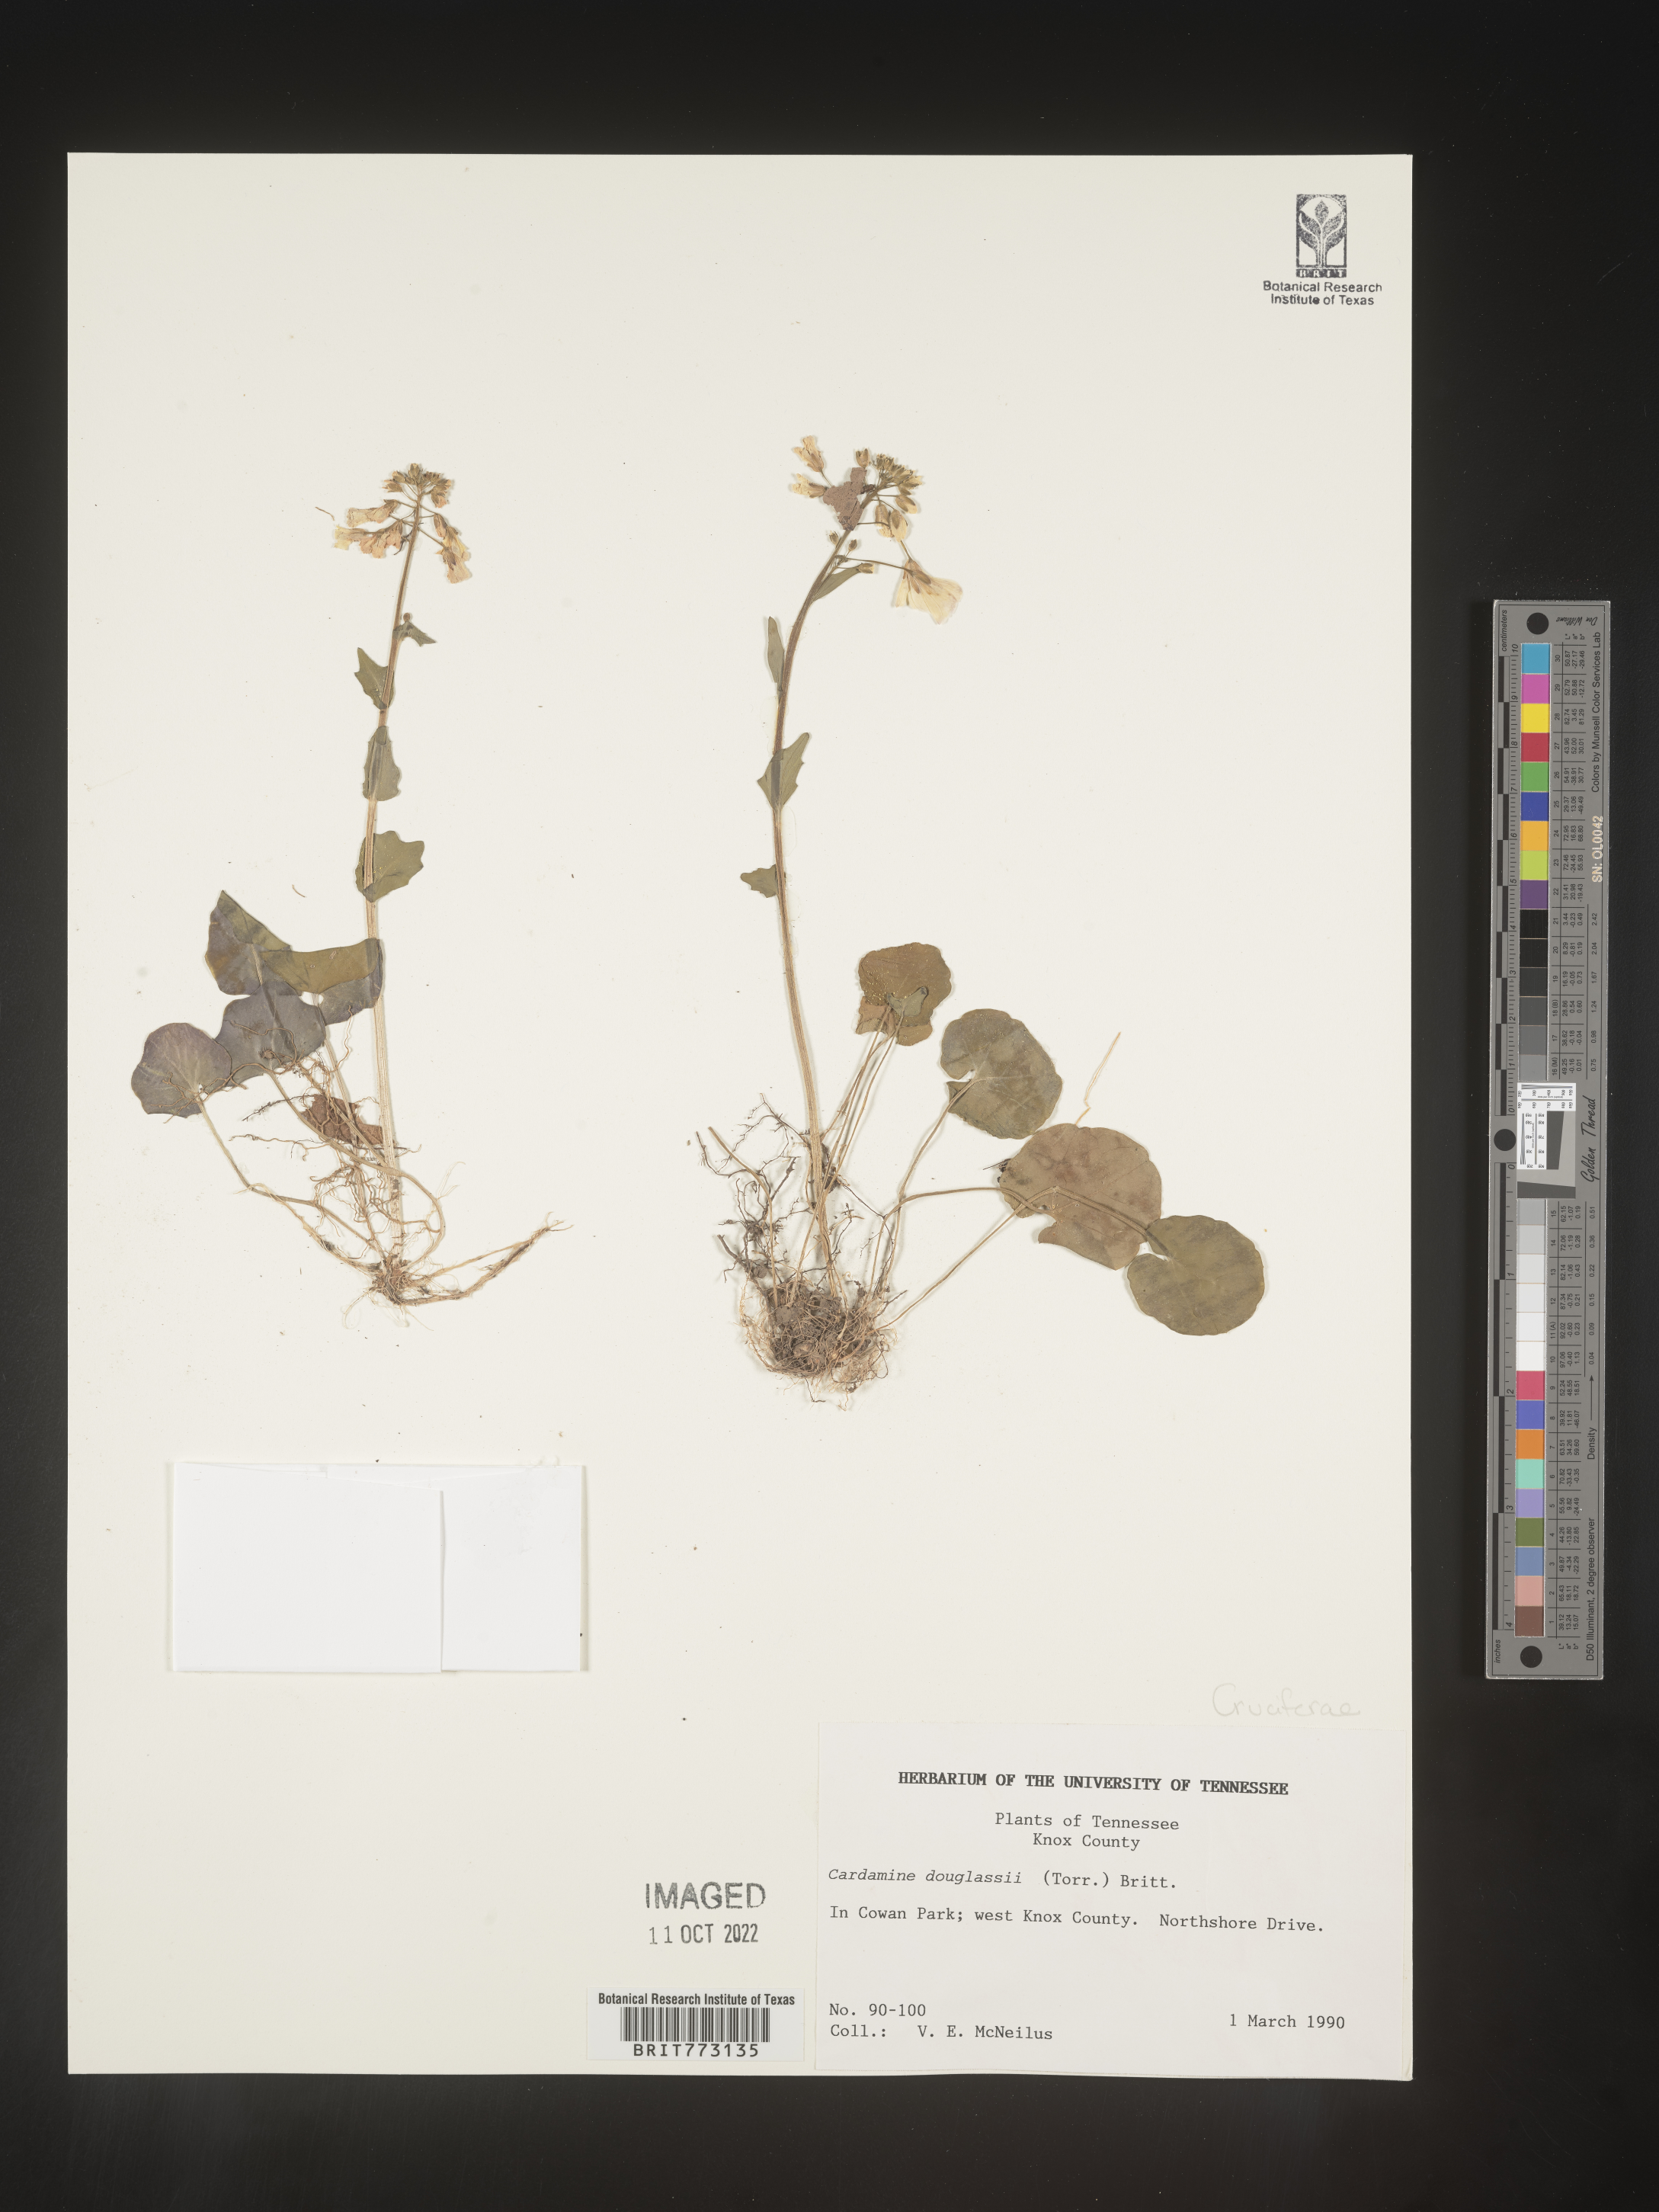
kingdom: Plantae
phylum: Tracheophyta
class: Magnoliopsida
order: Brassicales
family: Brassicaceae
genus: Cardamine
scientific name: Cardamine
